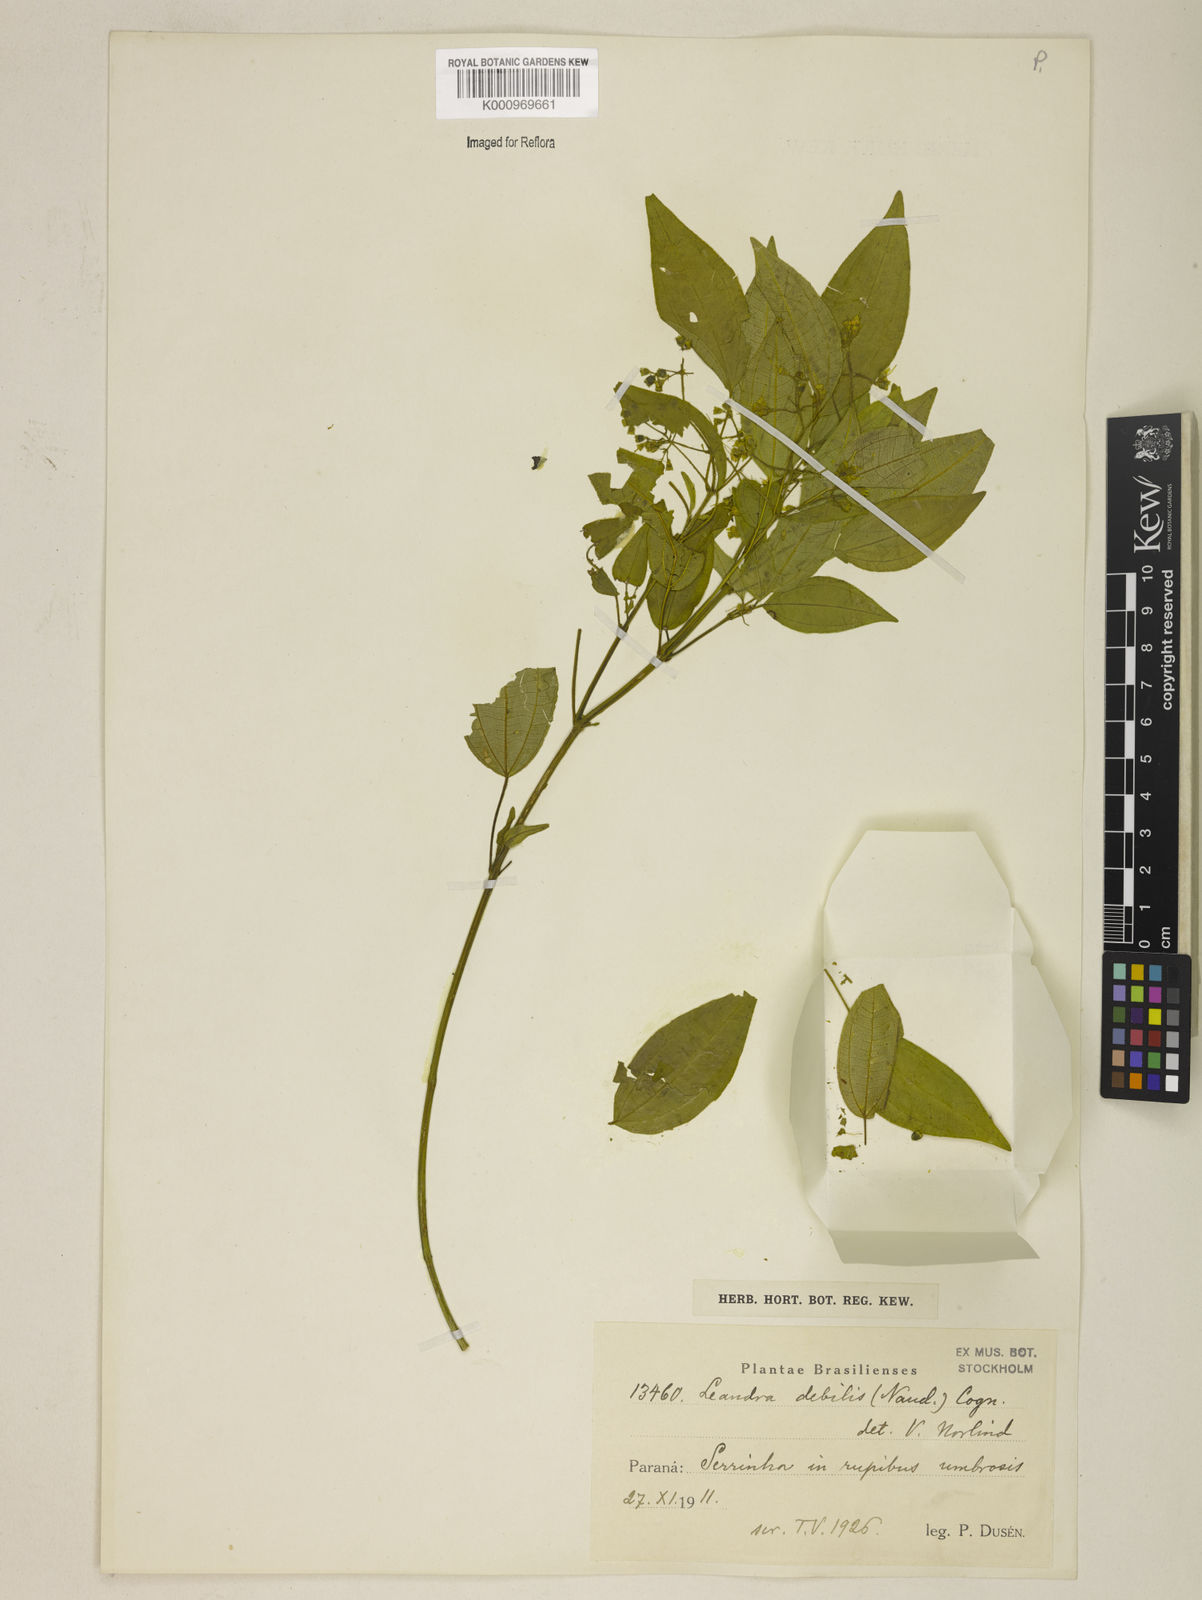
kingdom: Plantae
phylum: Tracheophyta
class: Magnoliopsida
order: Myrtales
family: Melastomataceae
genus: Miconia
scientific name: Miconia leadebilis
